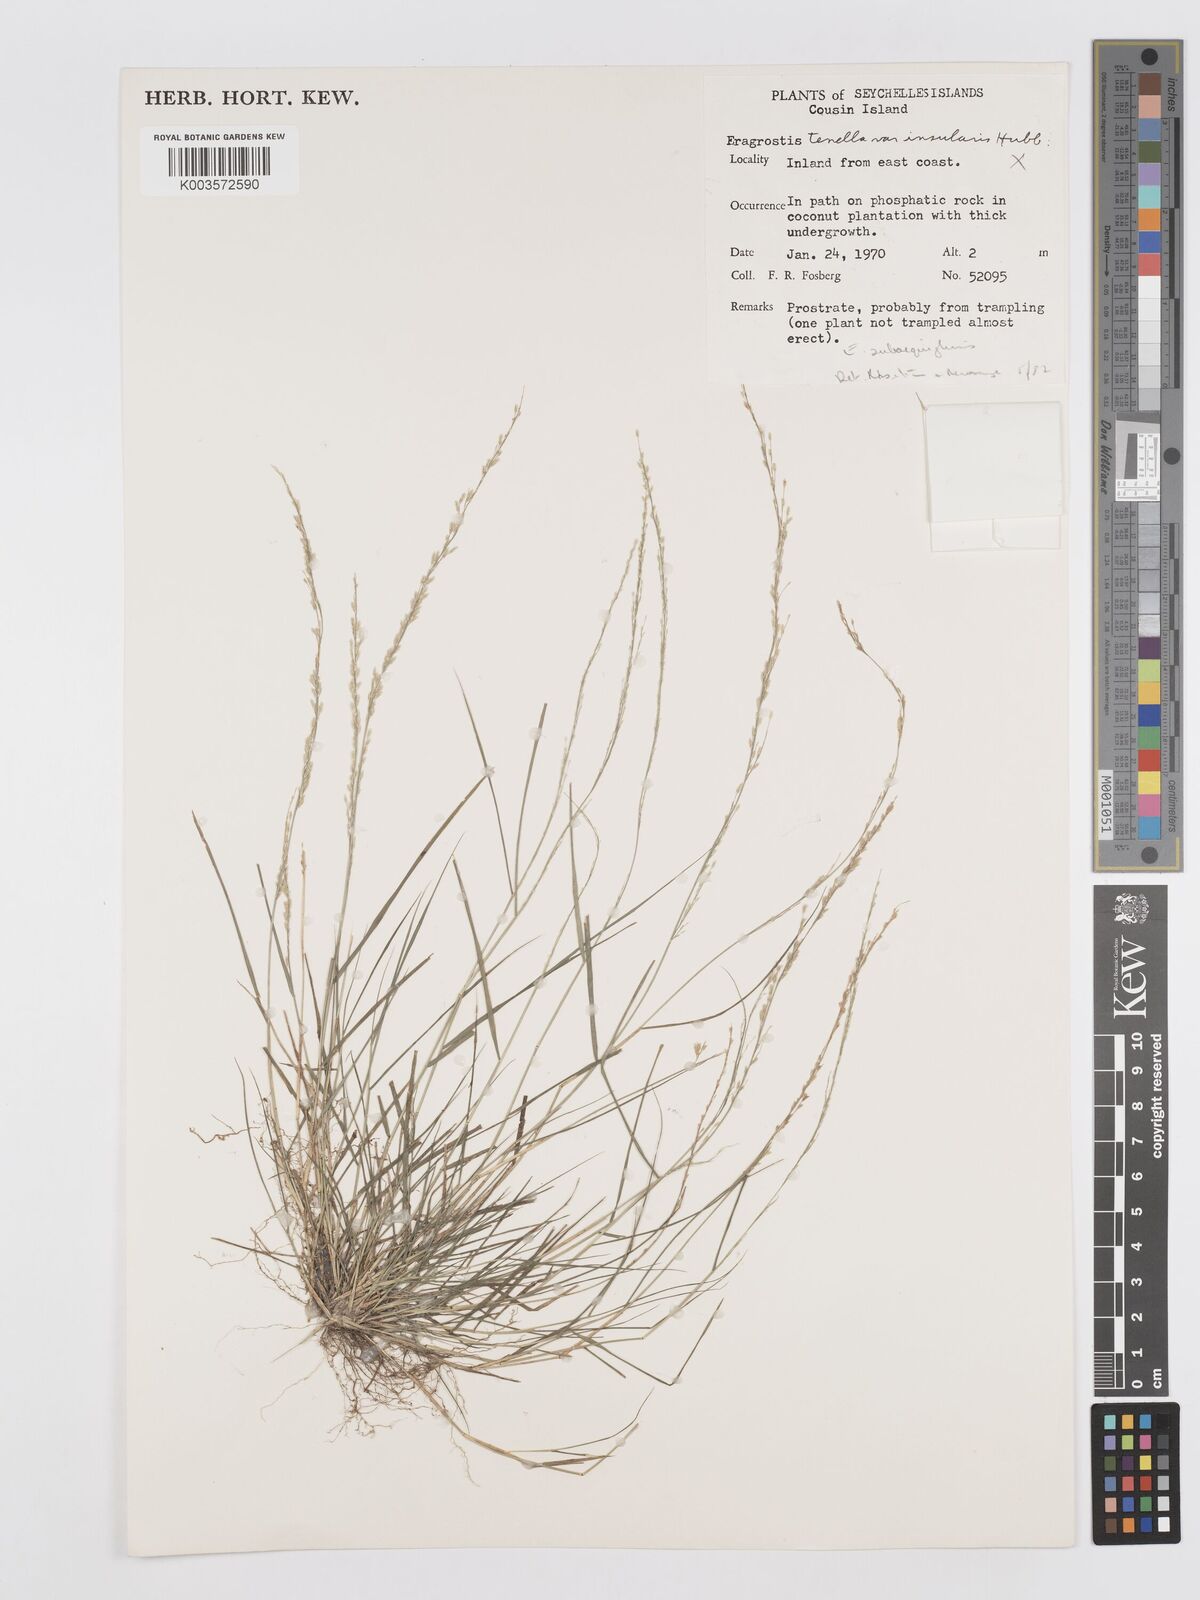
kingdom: Plantae
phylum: Tracheophyta
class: Liliopsida
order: Poales
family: Poaceae
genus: Eragrostis
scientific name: Eragrostis subaequiglumis
